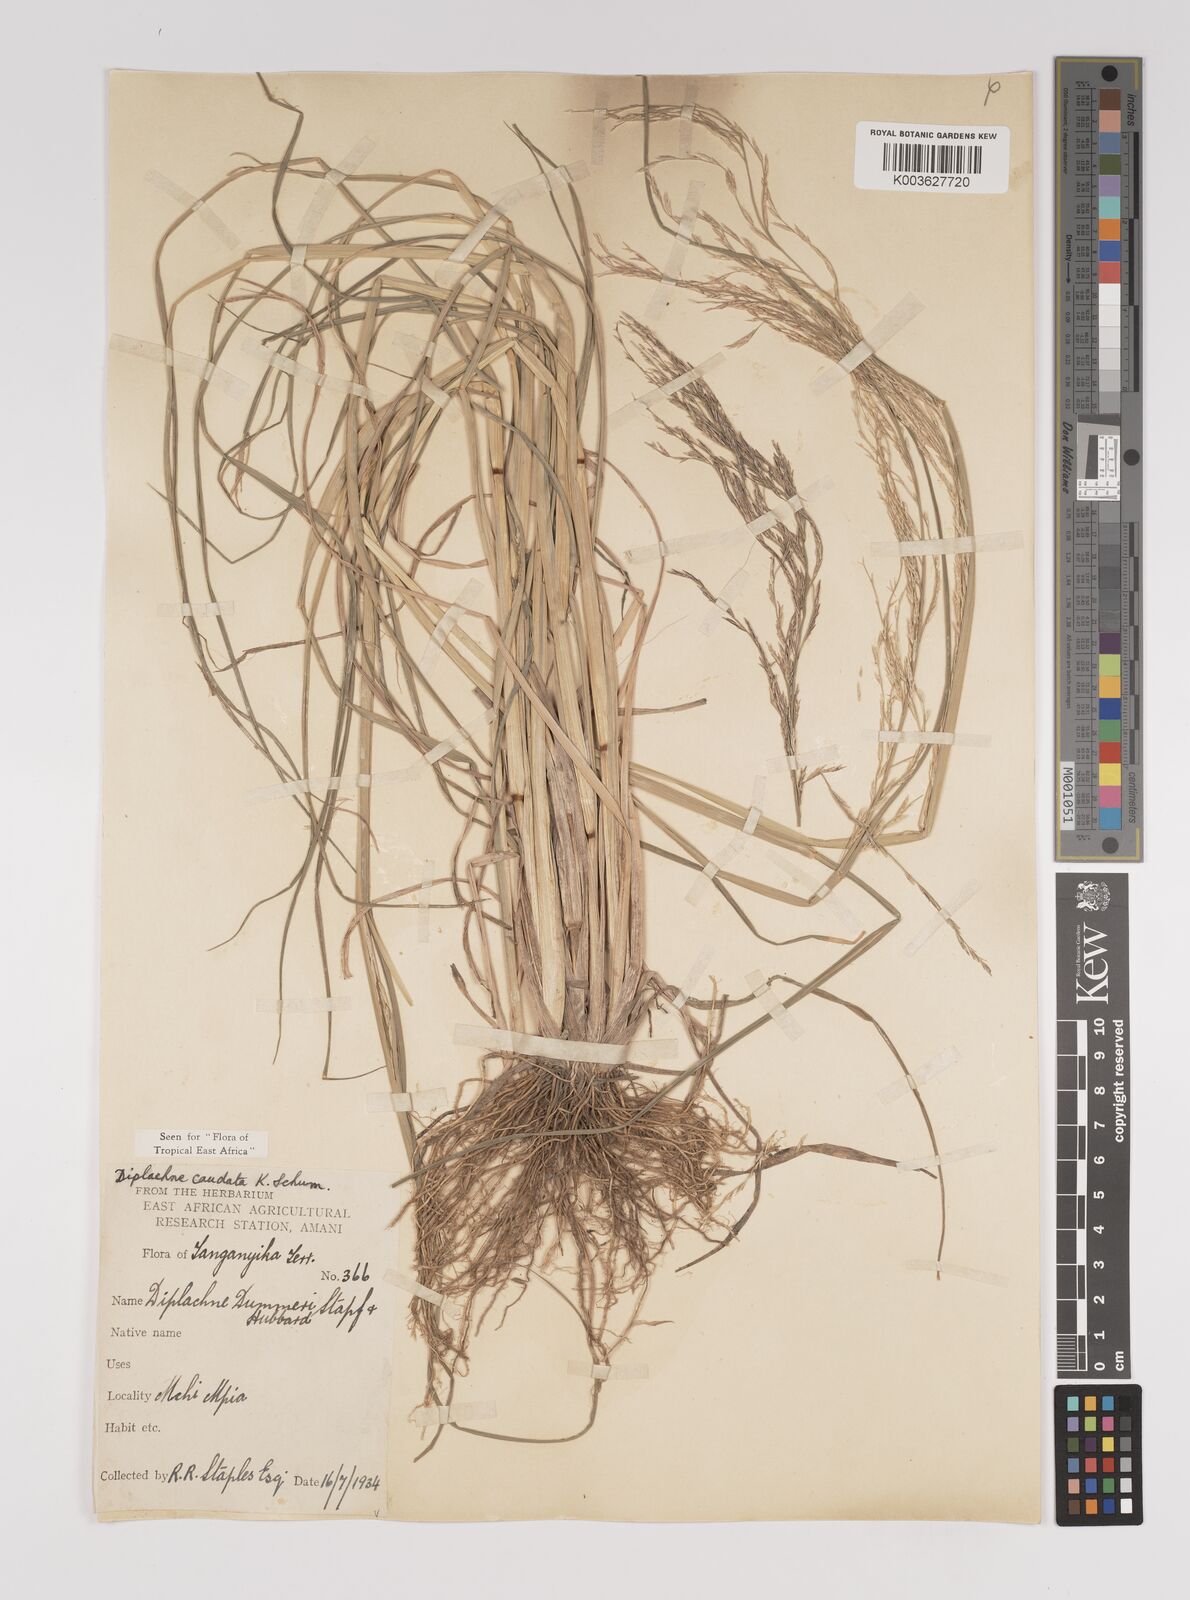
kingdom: Plantae
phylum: Tracheophyta
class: Liliopsida
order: Poales
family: Poaceae
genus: Leptochloa
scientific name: Leptochloa caudata
